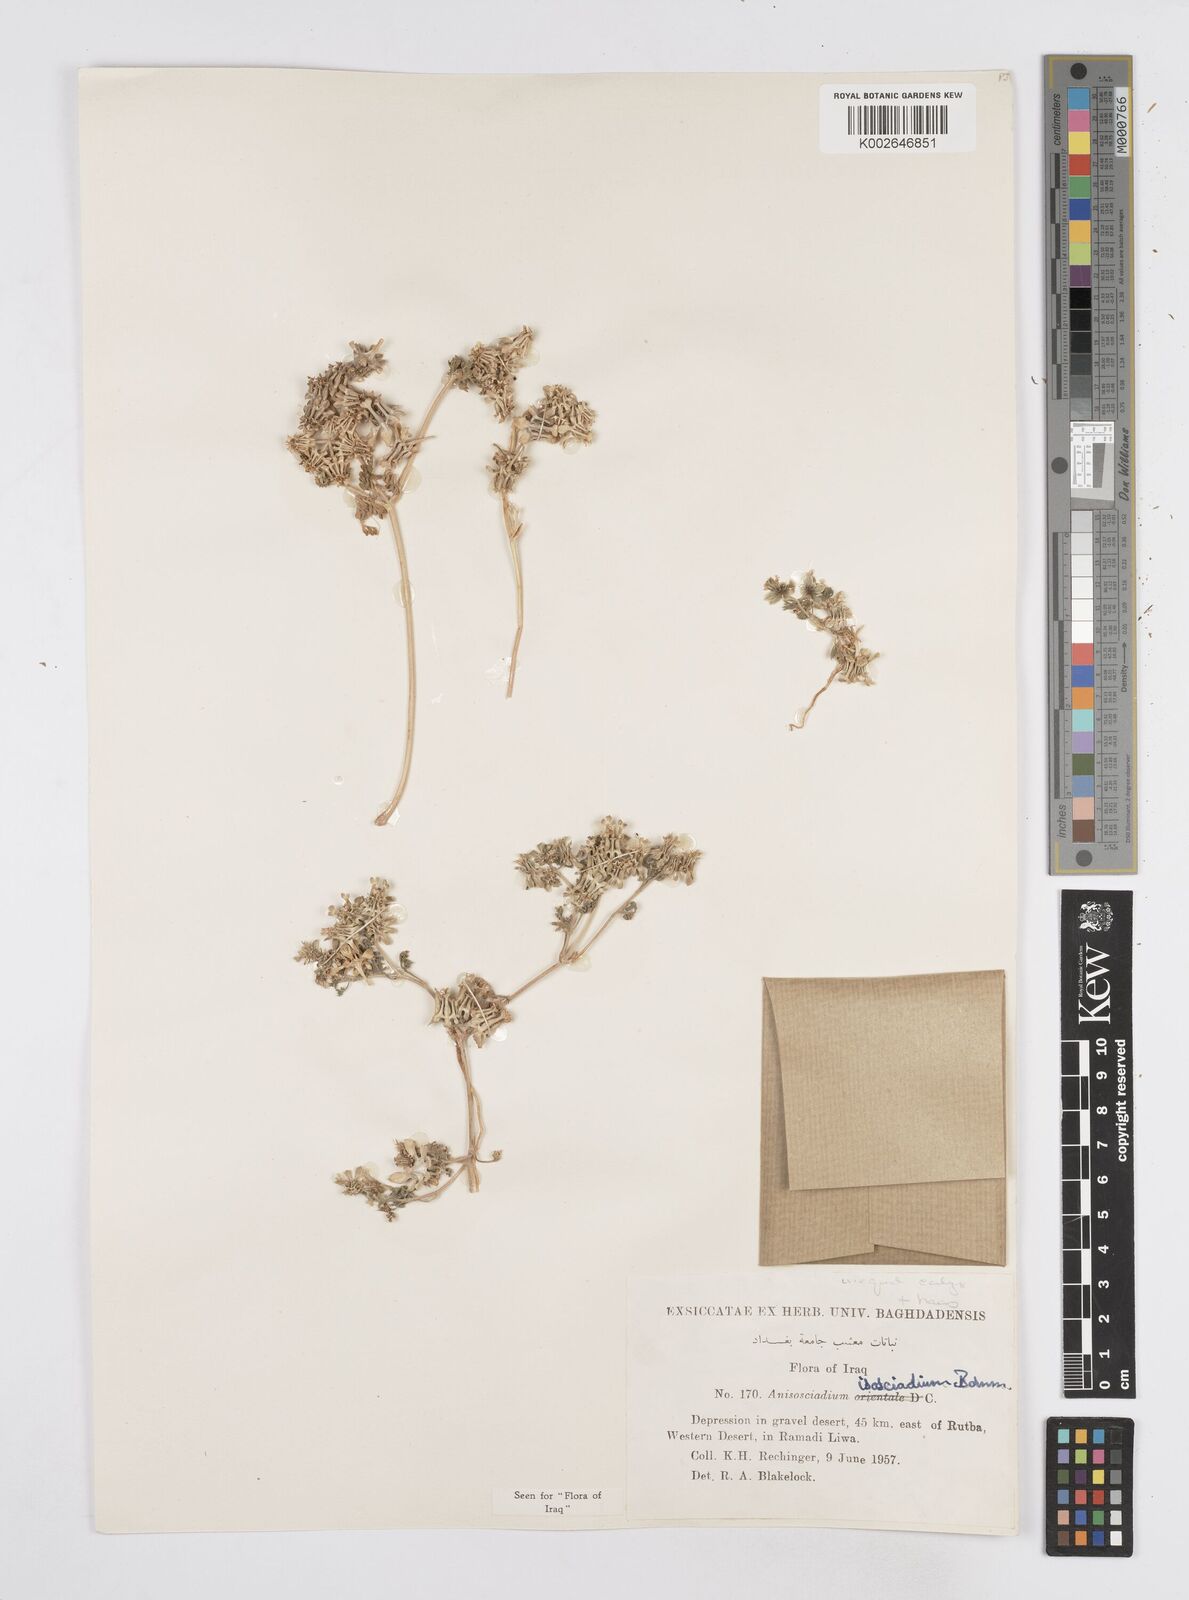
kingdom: Plantae
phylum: Tracheophyta
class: Magnoliopsida
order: Apiales
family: Apiaceae
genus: Anisosciadium
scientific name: Anisosciadium isosciadium
